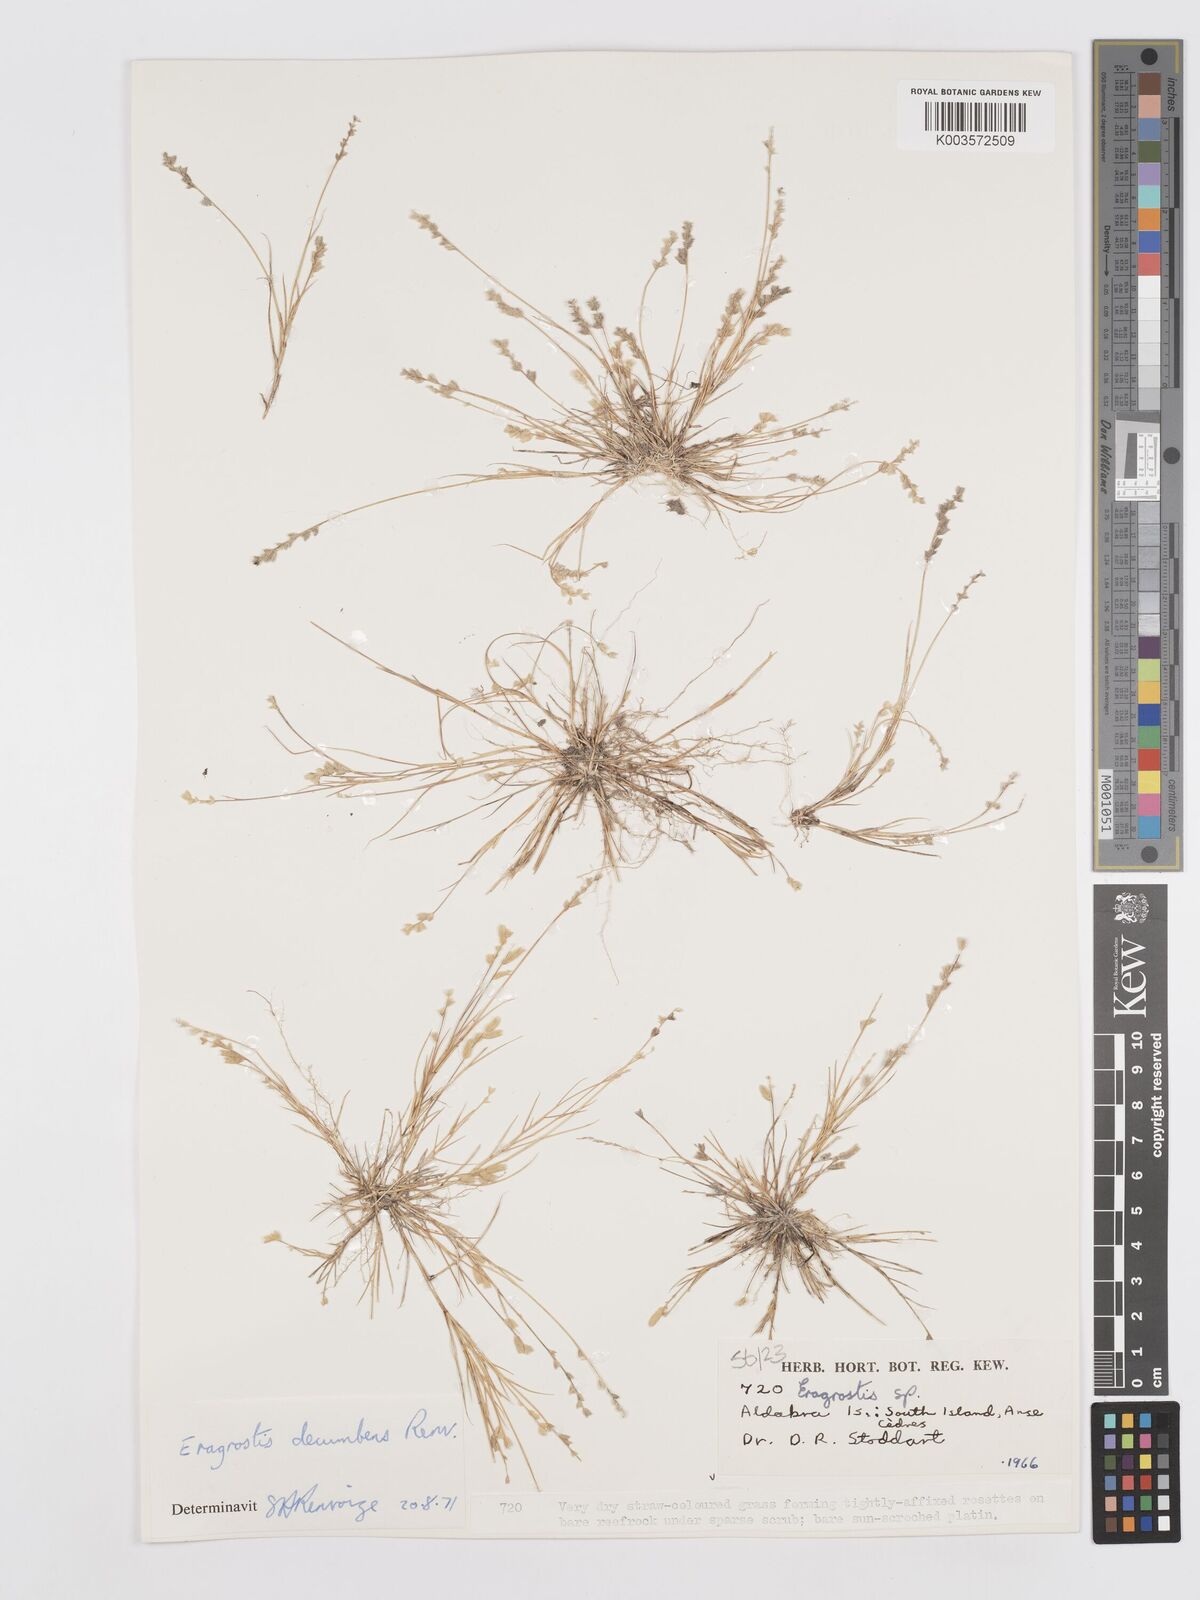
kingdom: Plantae
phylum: Tracheophyta
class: Liliopsida
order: Poales
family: Poaceae
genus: Eragrostis
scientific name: Eragrostis decumbens
